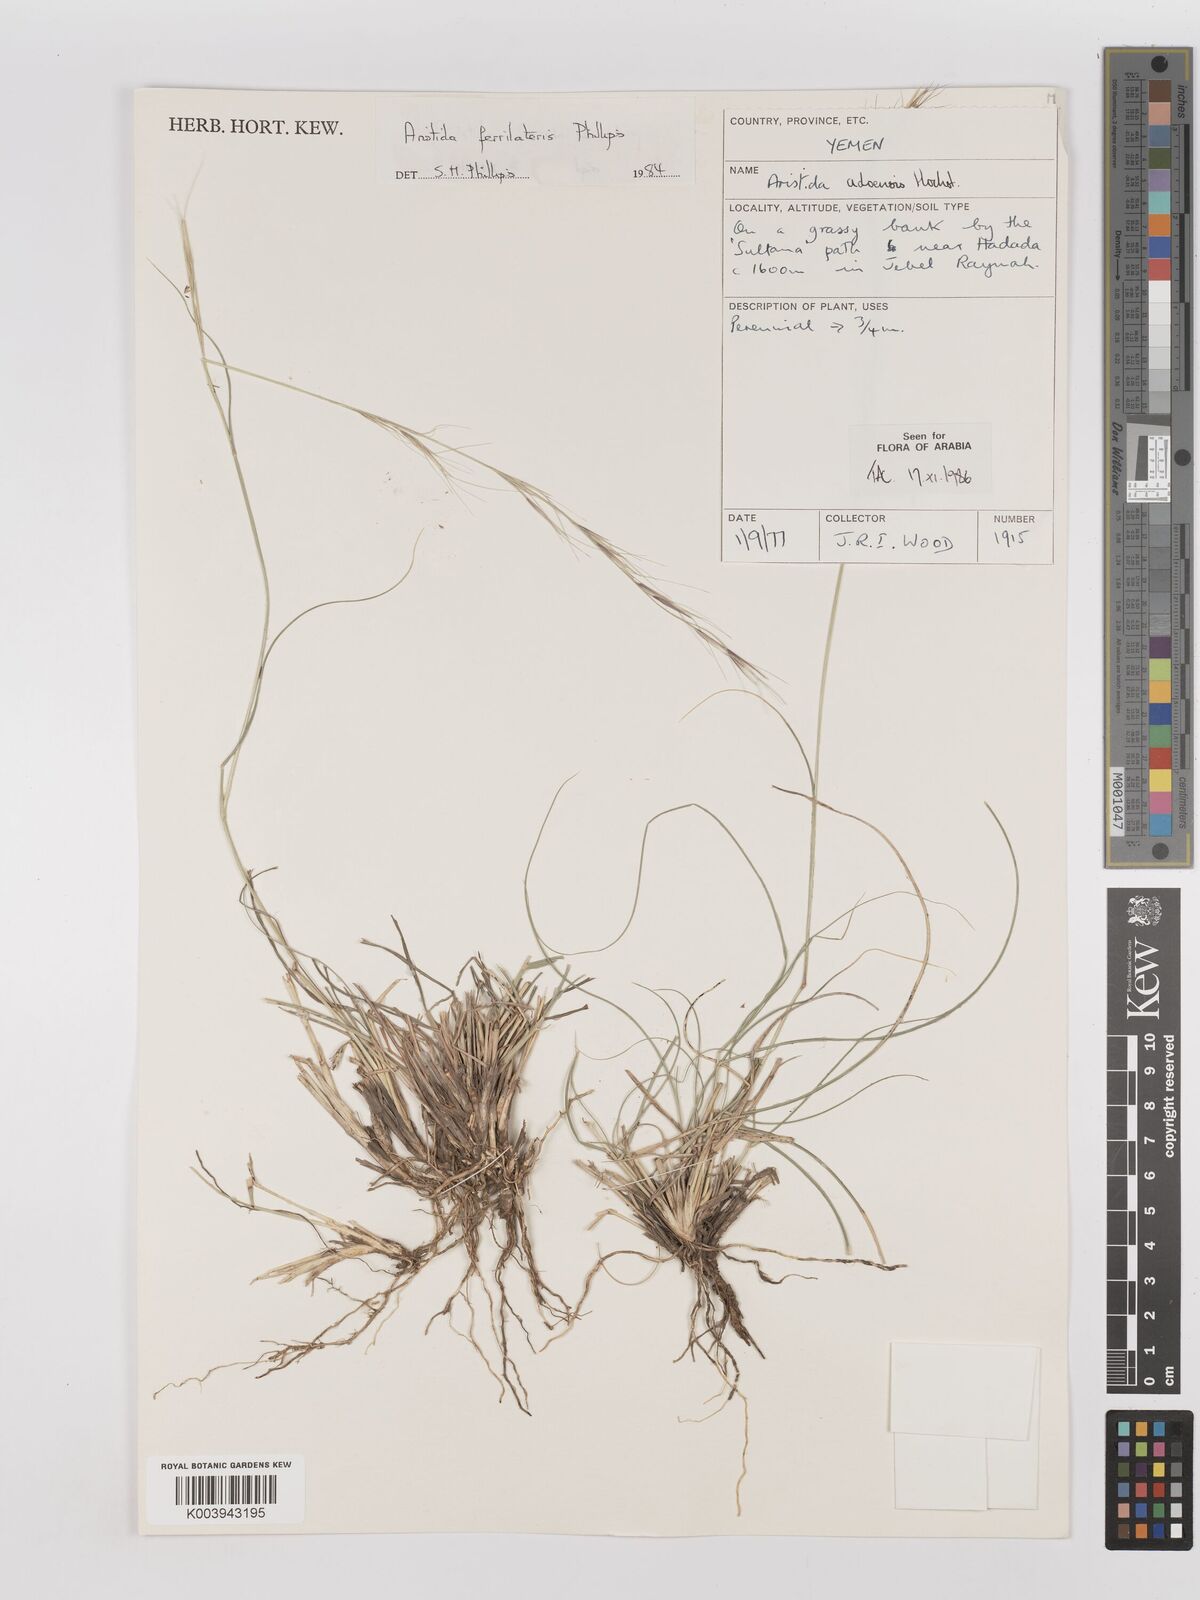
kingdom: Plantae
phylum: Tracheophyta
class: Liliopsida
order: Poales
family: Poaceae
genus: Aristida
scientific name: Aristida ferrilateris
